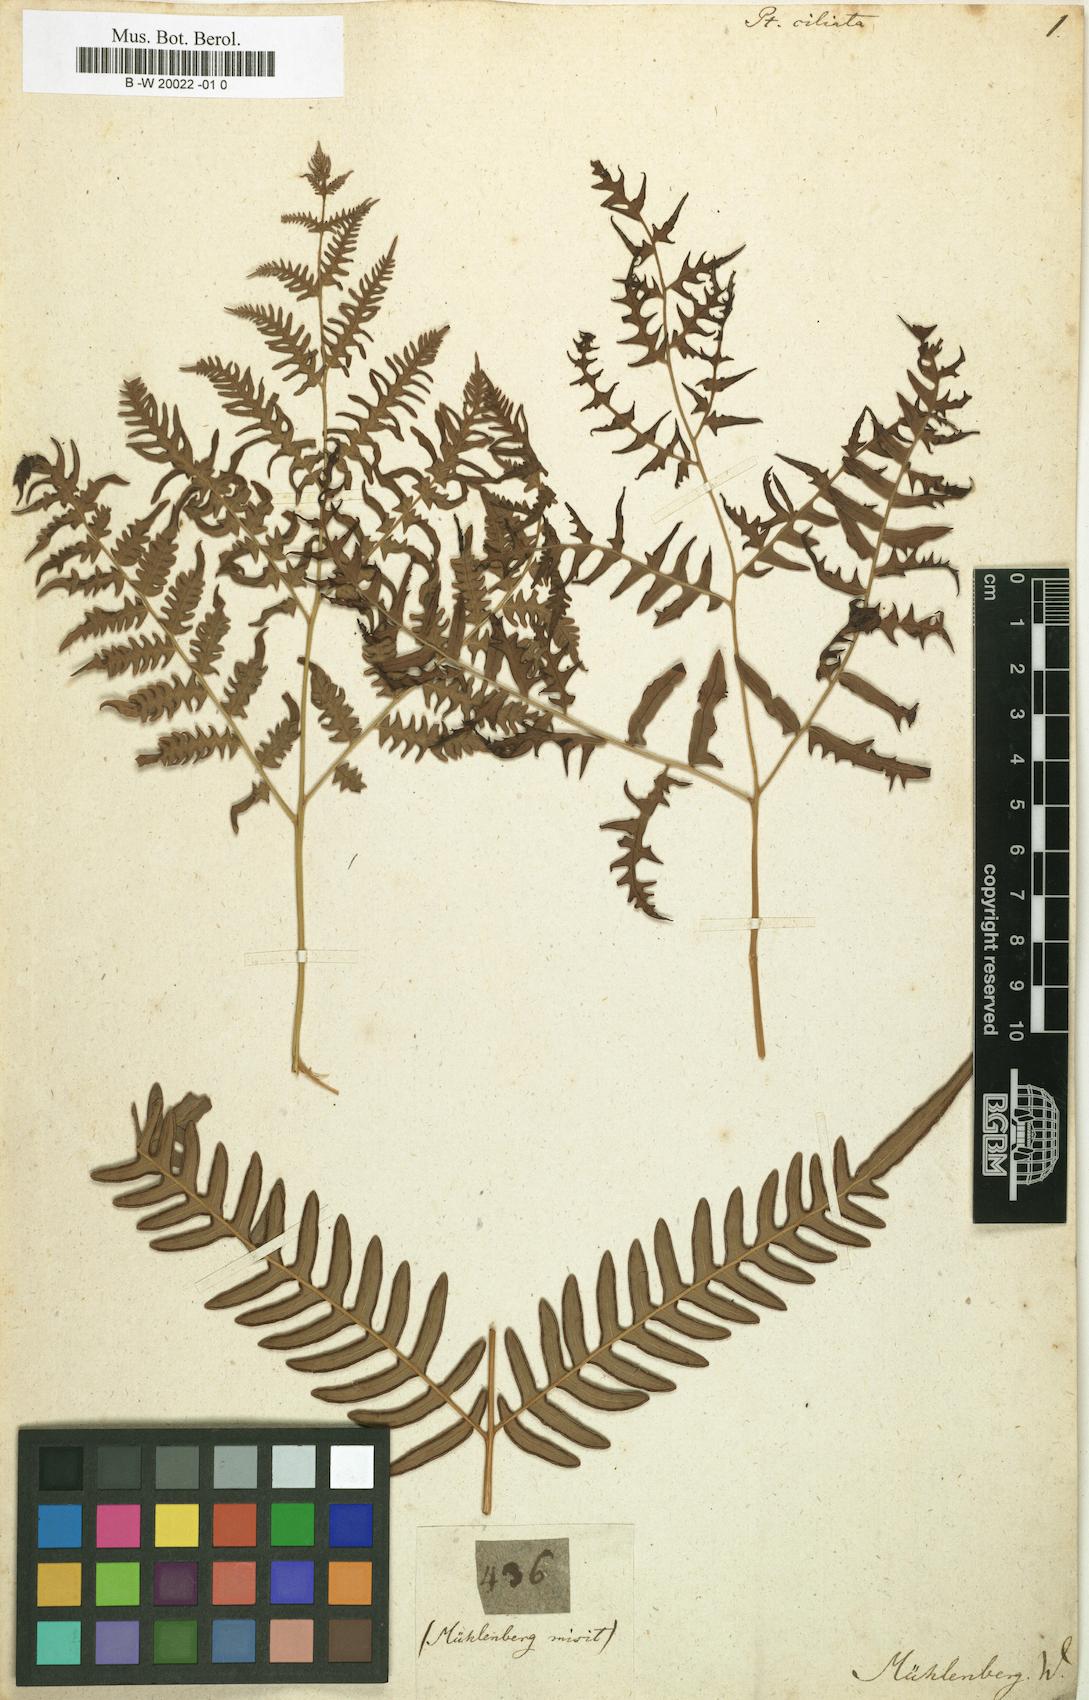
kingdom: Plantae
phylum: Tracheophyta
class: Polypodiopsida
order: Polypodiales
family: Pteridaceae
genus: Pteris
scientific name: Pteris ciliata
